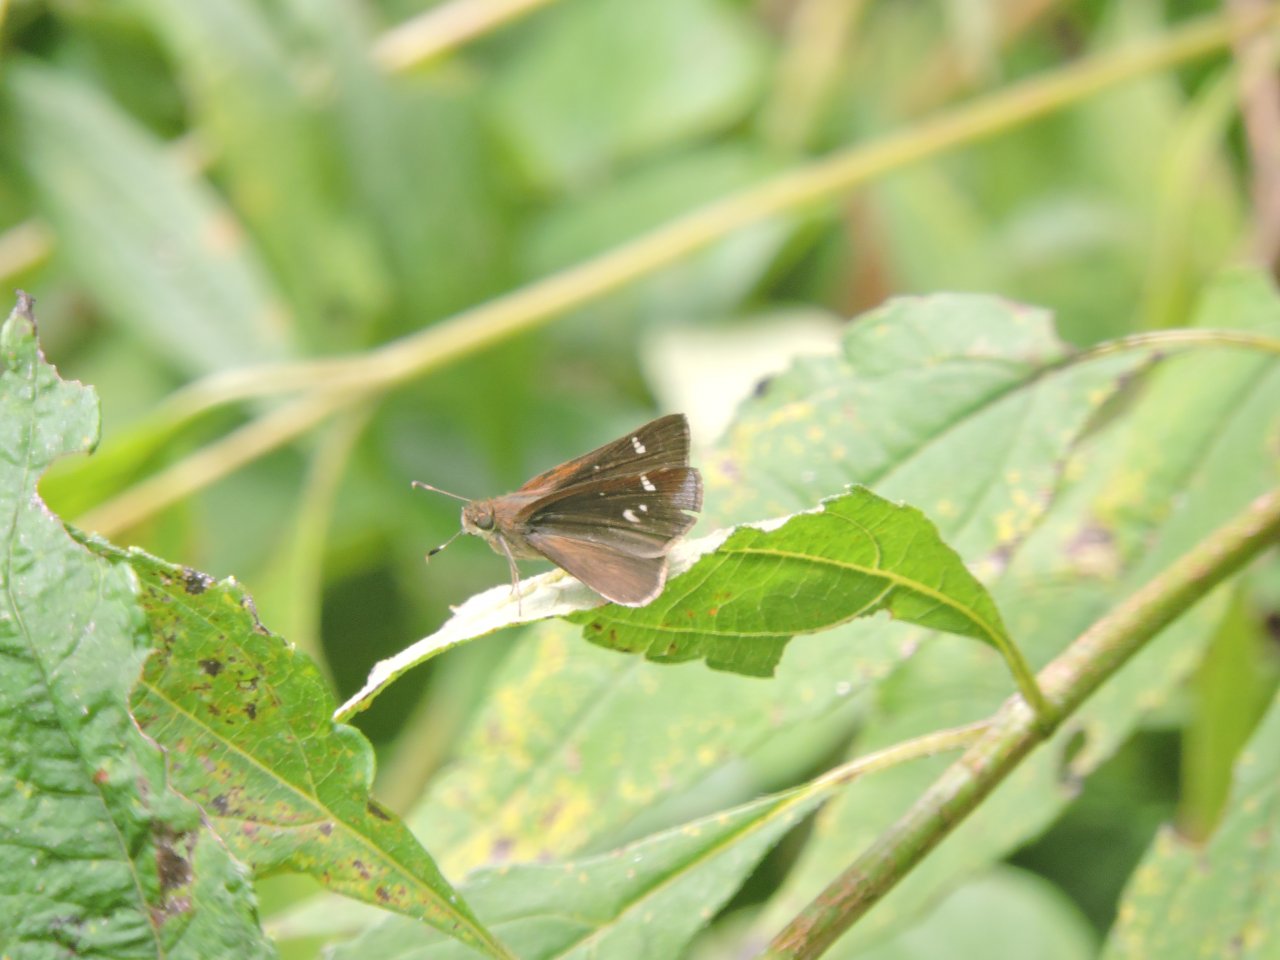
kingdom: Animalia
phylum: Arthropoda
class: Insecta
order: Lepidoptera
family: Hesperiidae
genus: Panoquina
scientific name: Panoquina ocola
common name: Ocola Skipper
